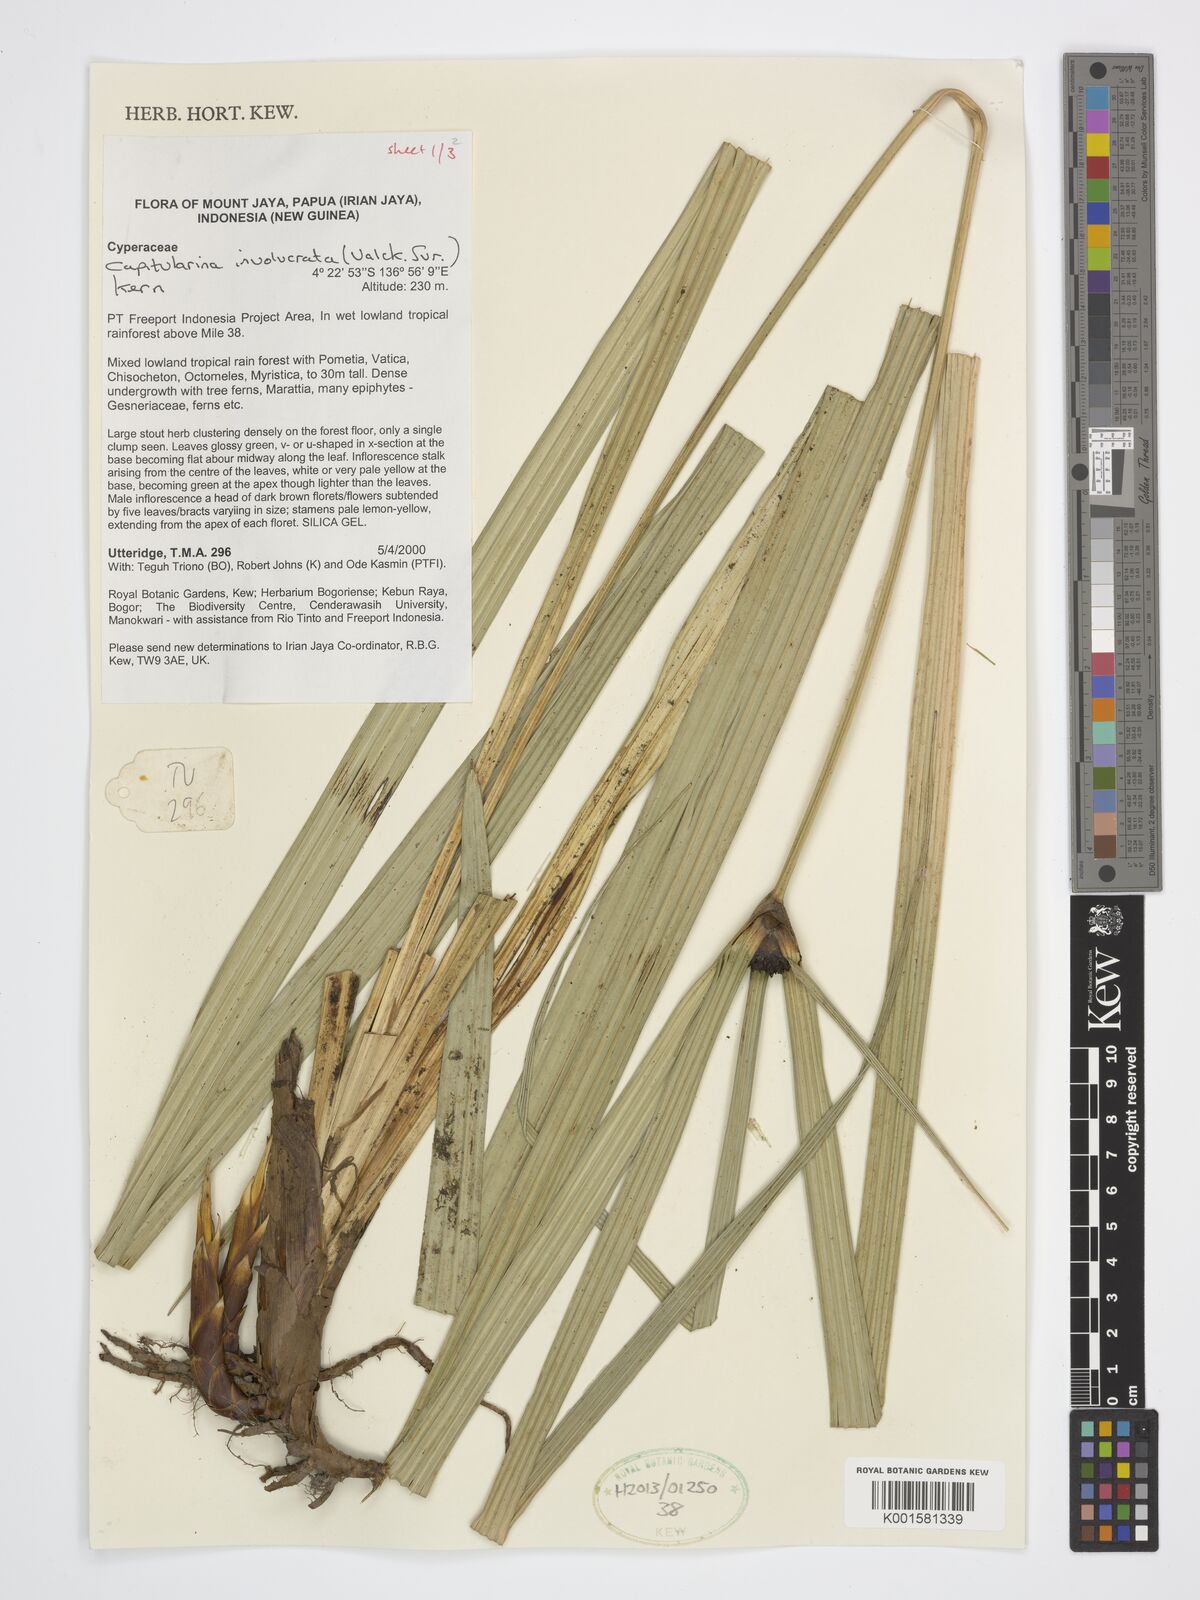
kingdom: Plantae
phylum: Tracheophyta
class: Liliopsida
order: Poales
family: Cyperaceae
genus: Capitularina
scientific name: Capitularina involucrata
